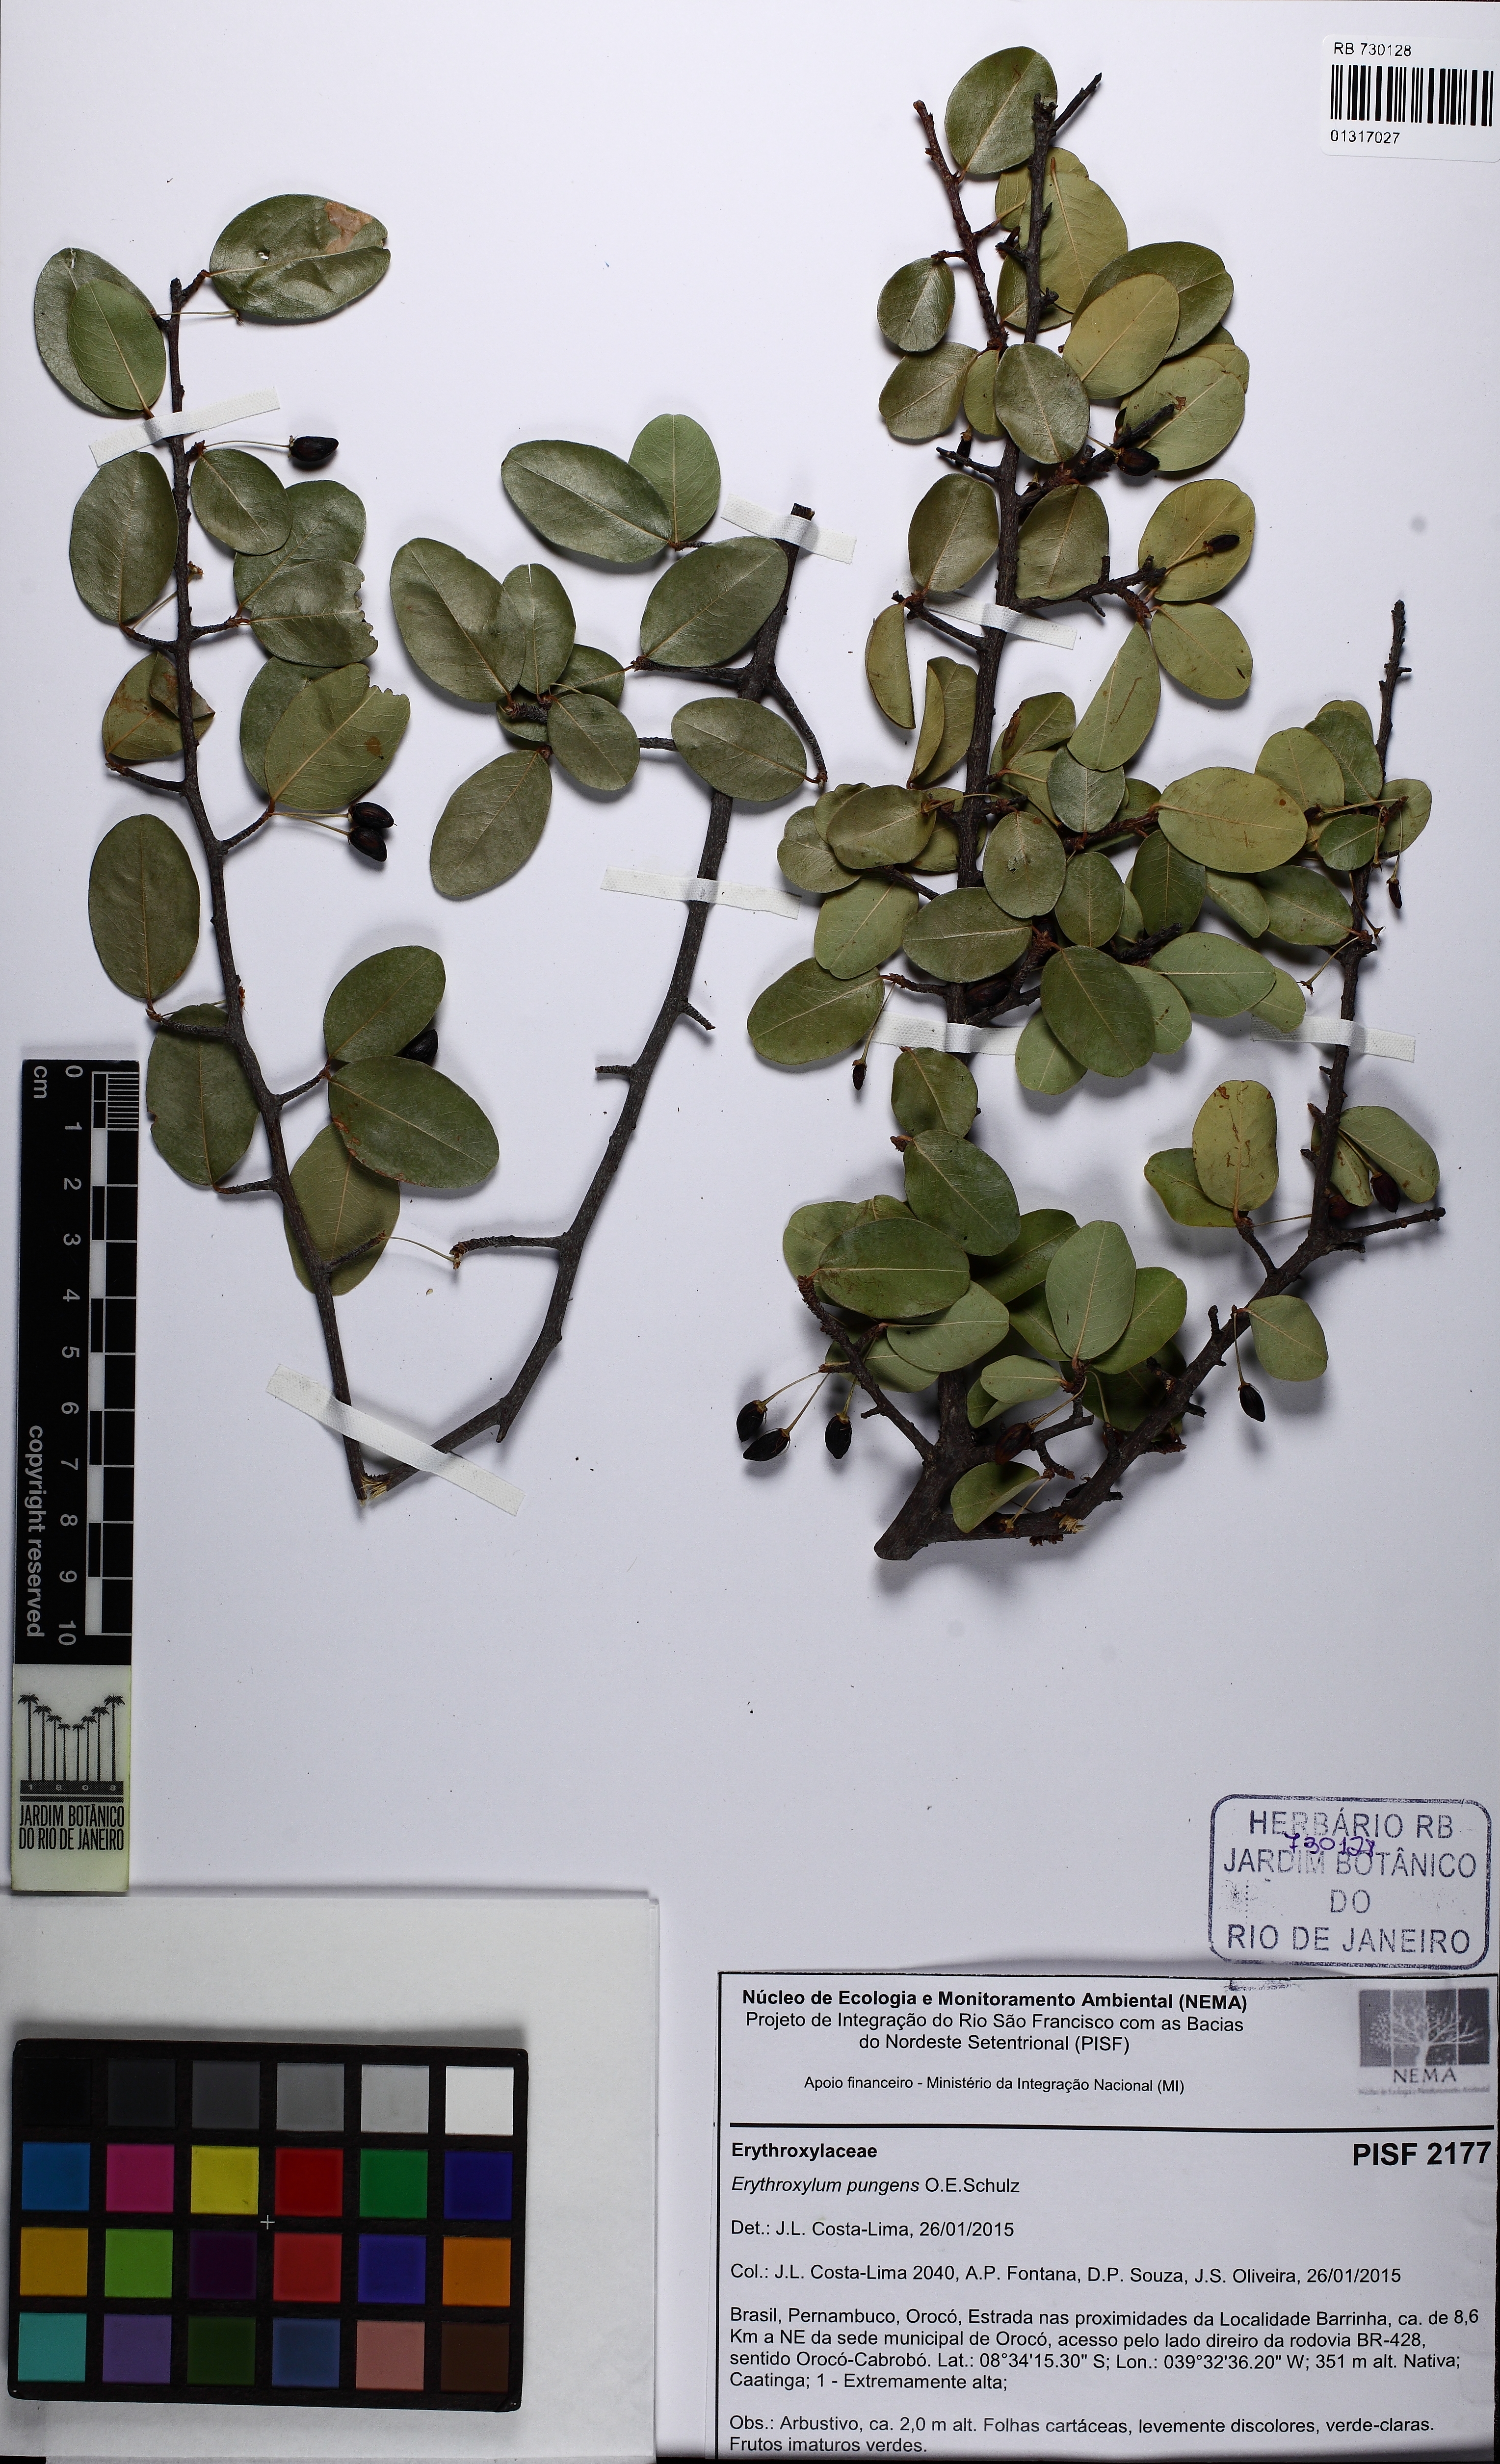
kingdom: Plantae
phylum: Tracheophyta
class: Magnoliopsida
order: Malpighiales
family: Erythroxylaceae
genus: Erythroxylum
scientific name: Erythroxylum pungens
